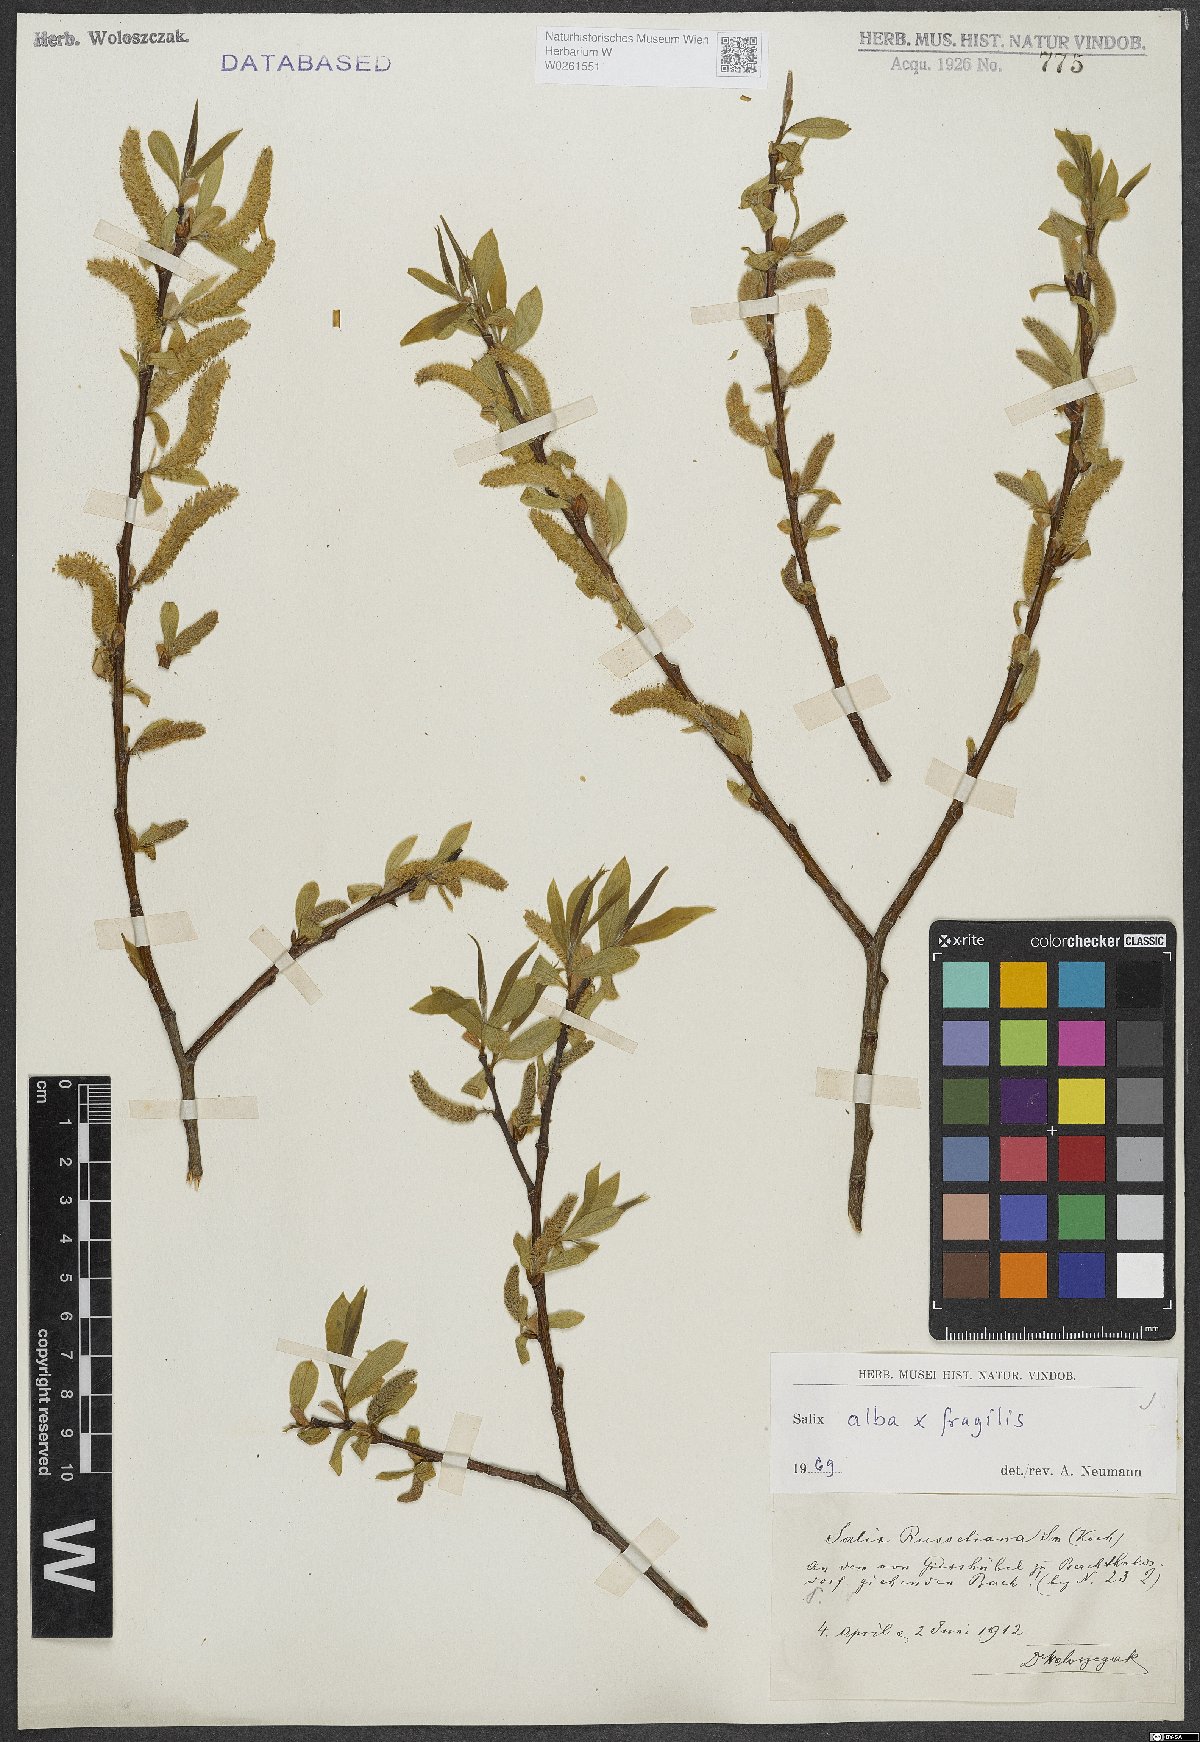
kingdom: Plantae
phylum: Tracheophyta
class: Magnoliopsida
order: Malpighiales
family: Salicaceae
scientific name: Salicaceae
